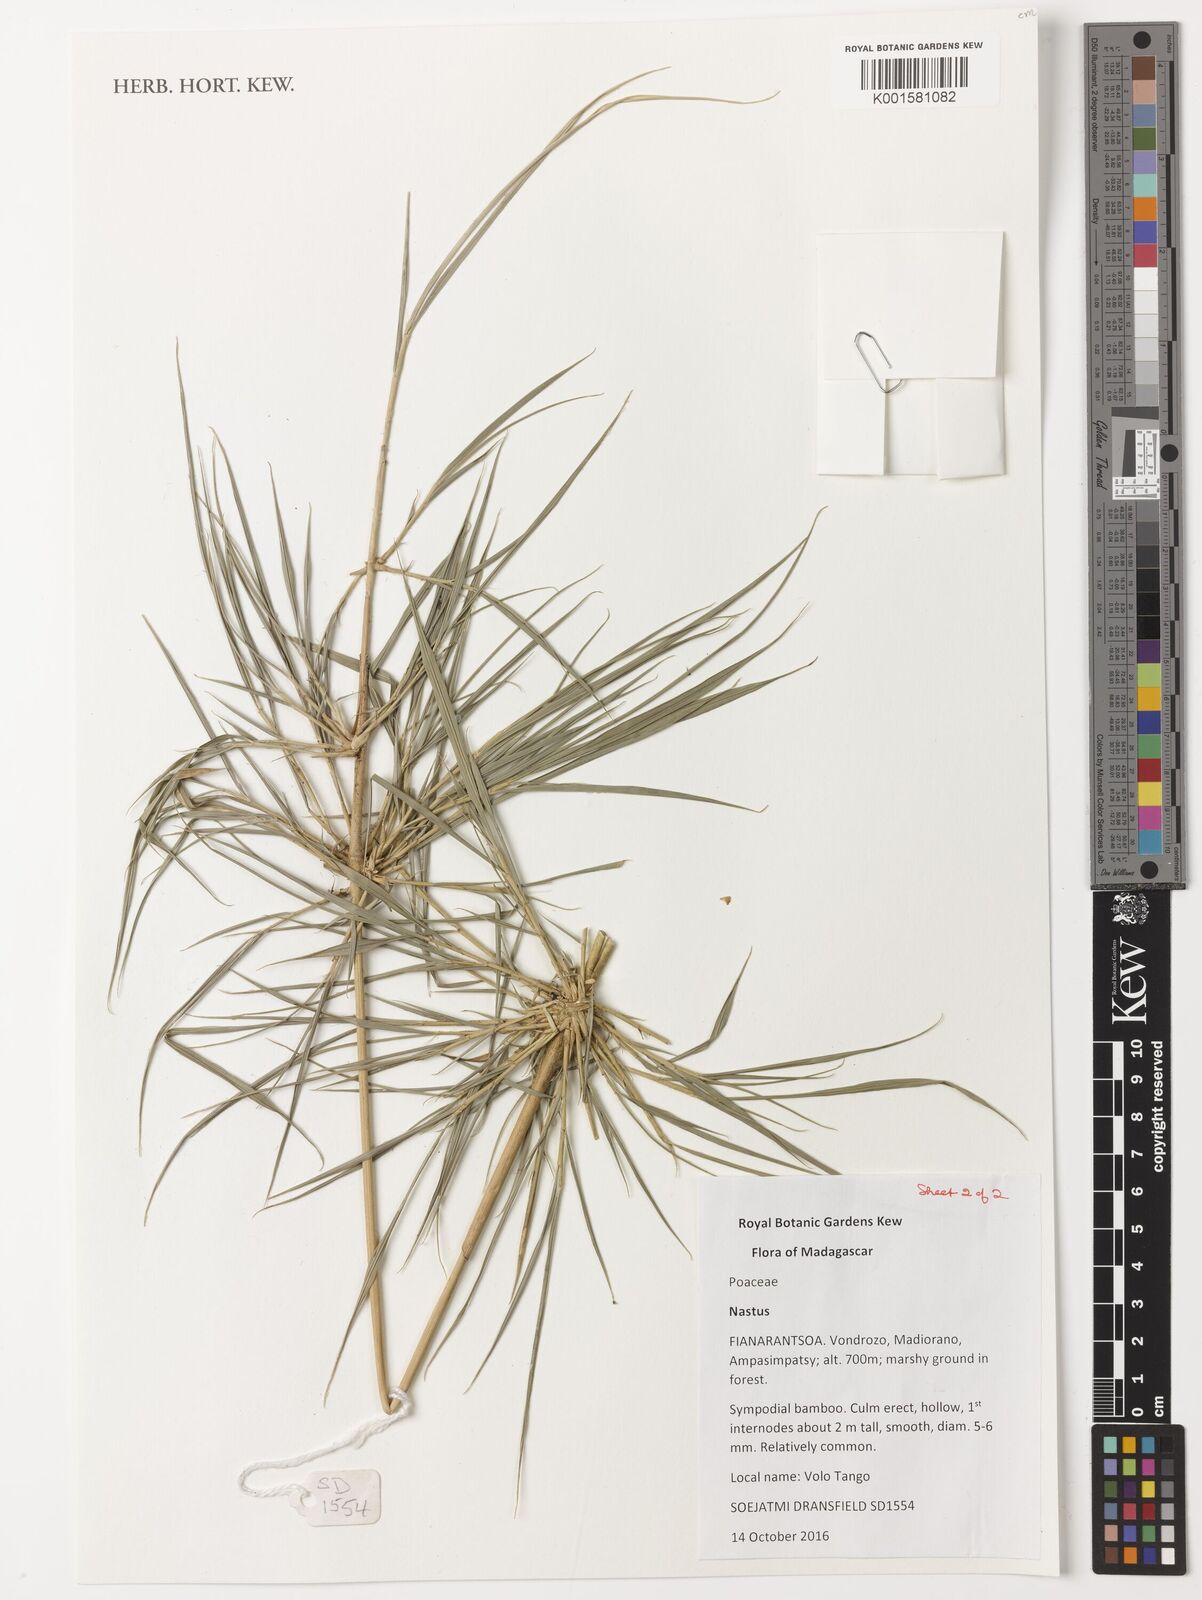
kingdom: Plantae
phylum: Tracheophyta
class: Liliopsida
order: Poales
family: Poaceae
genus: Nastus
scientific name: Nastus
